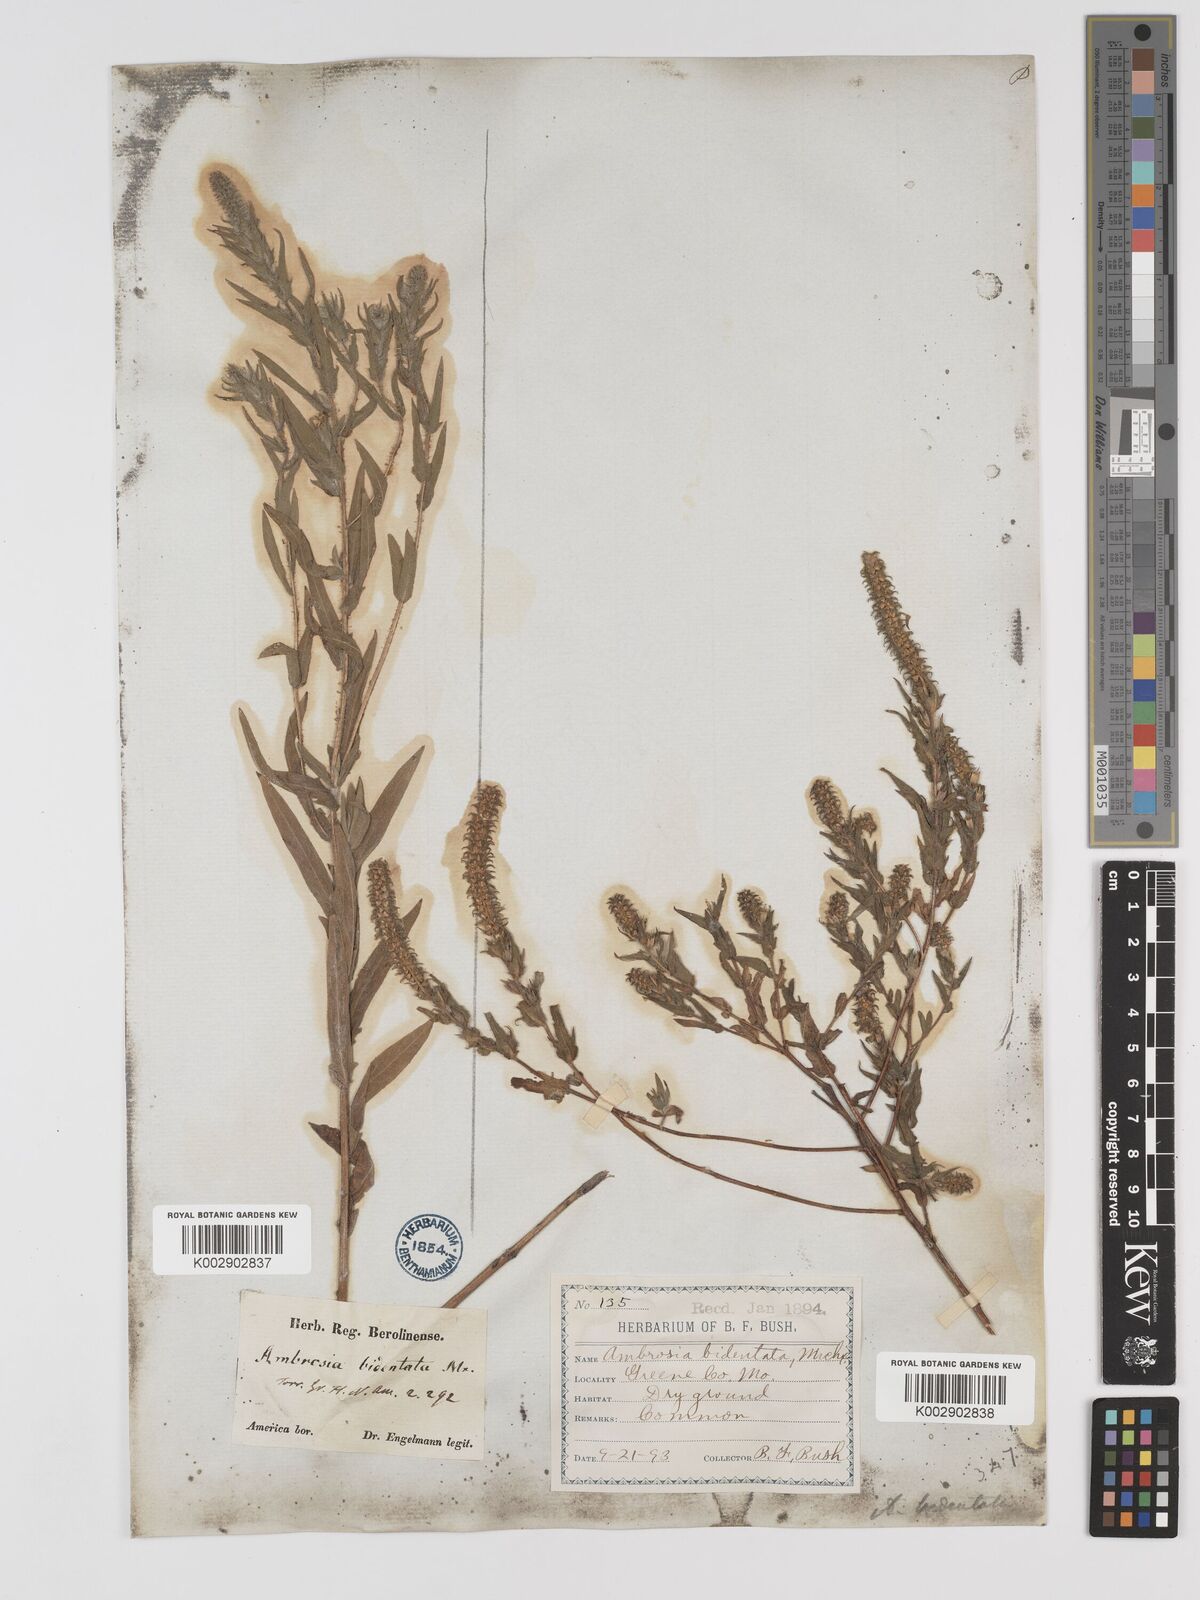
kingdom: Plantae
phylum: Tracheophyta
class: Magnoliopsida
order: Asterales
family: Asteraceae
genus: Ambrosia
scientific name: Ambrosia bidentata
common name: Southern ragweed
